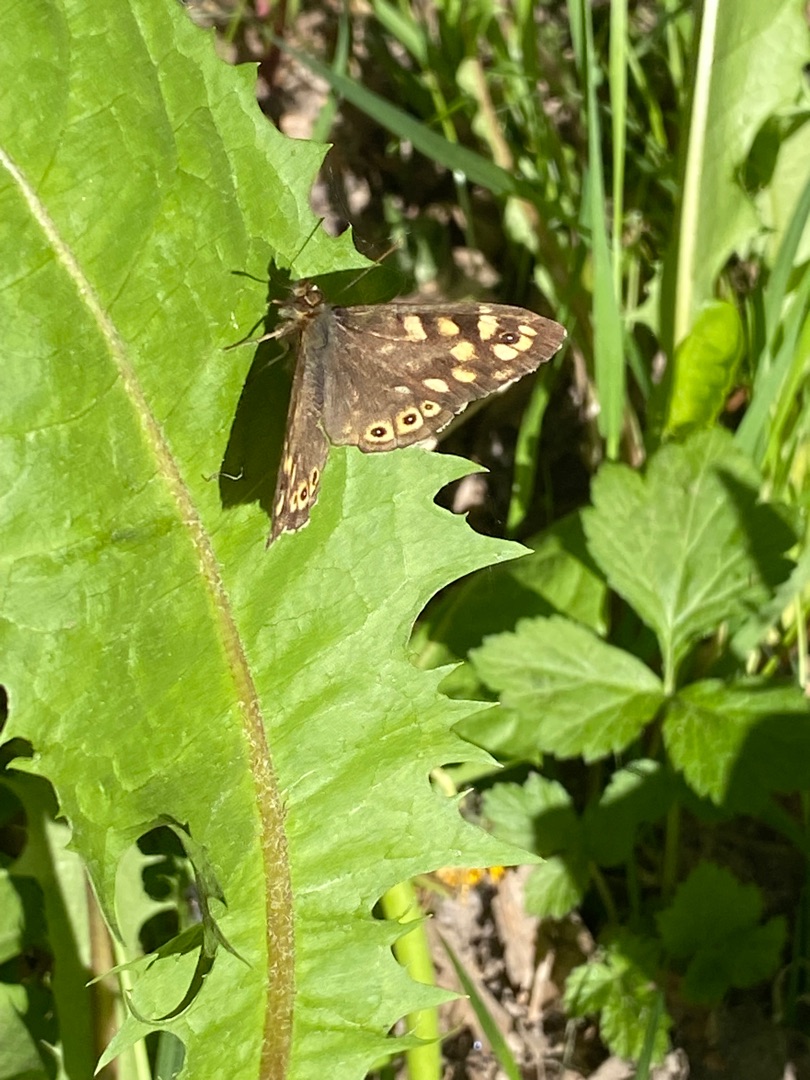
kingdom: Animalia
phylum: Arthropoda
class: Insecta
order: Lepidoptera
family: Nymphalidae
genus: Pararge
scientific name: Pararge aegeria
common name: Skovrandøje
